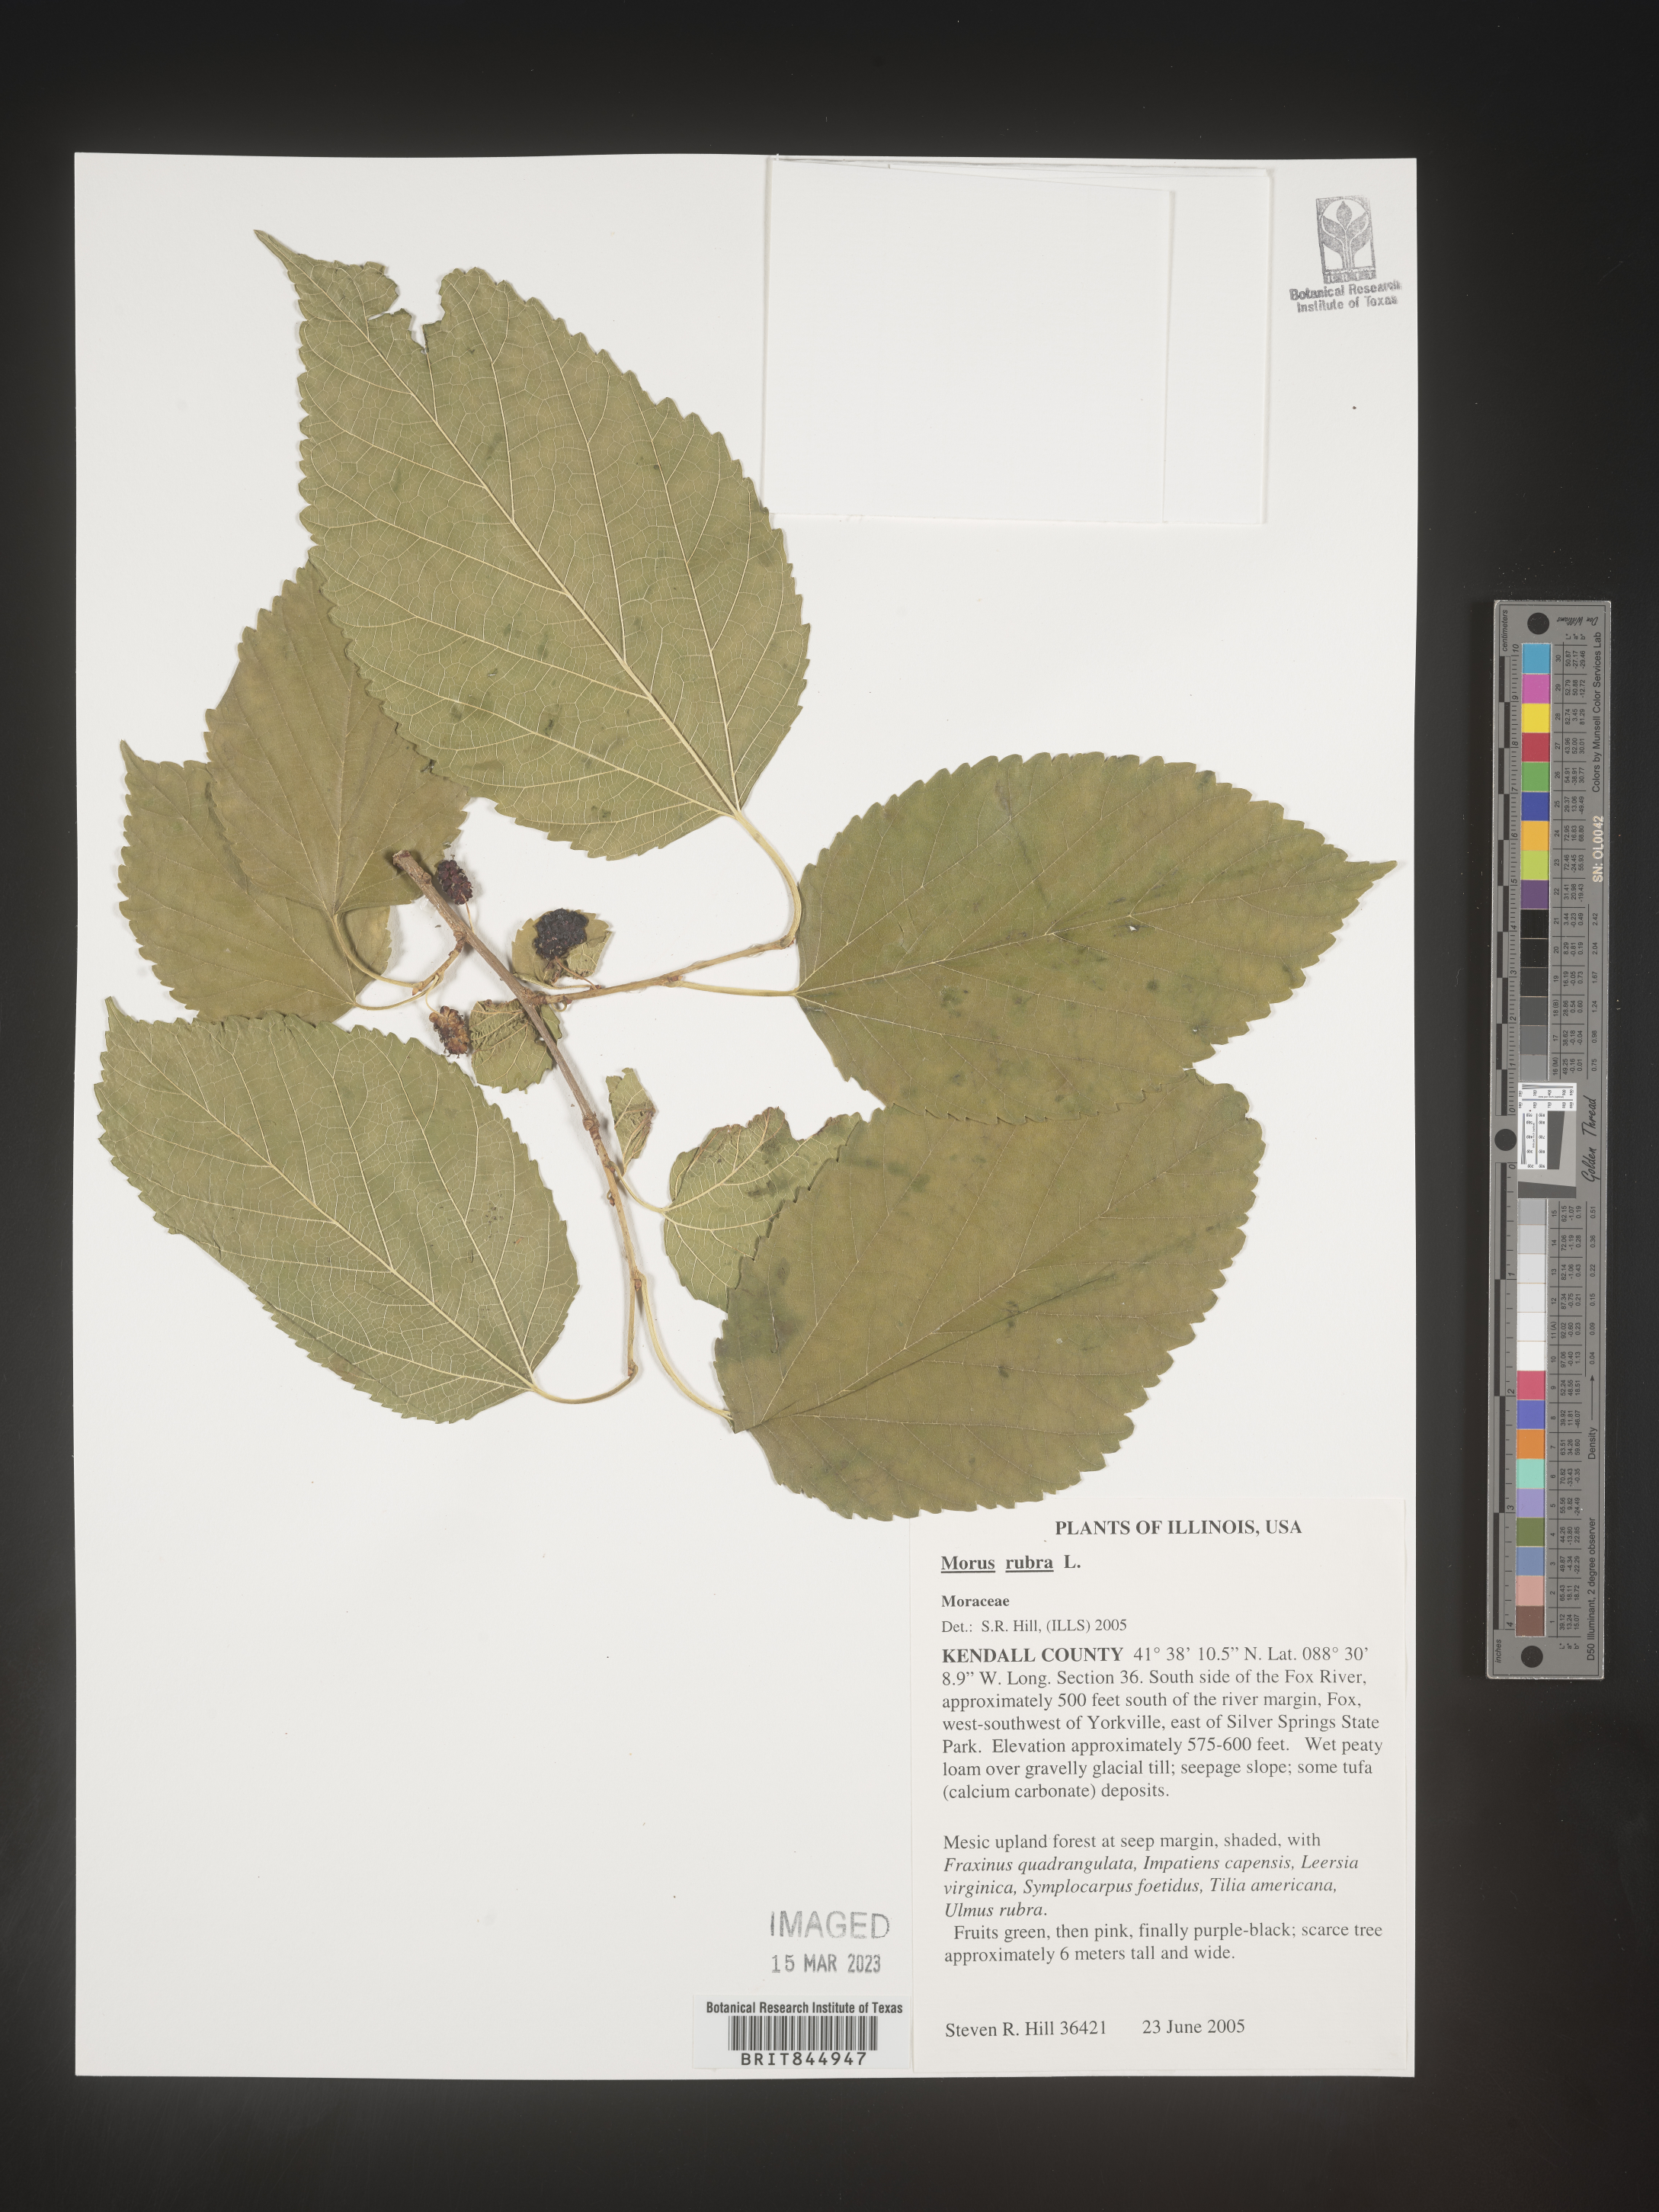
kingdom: Plantae
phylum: Tracheophyta
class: Magnoliopsida
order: Rosales
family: Moraceae
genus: Morus
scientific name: Morus rubra
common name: Red mulberry
